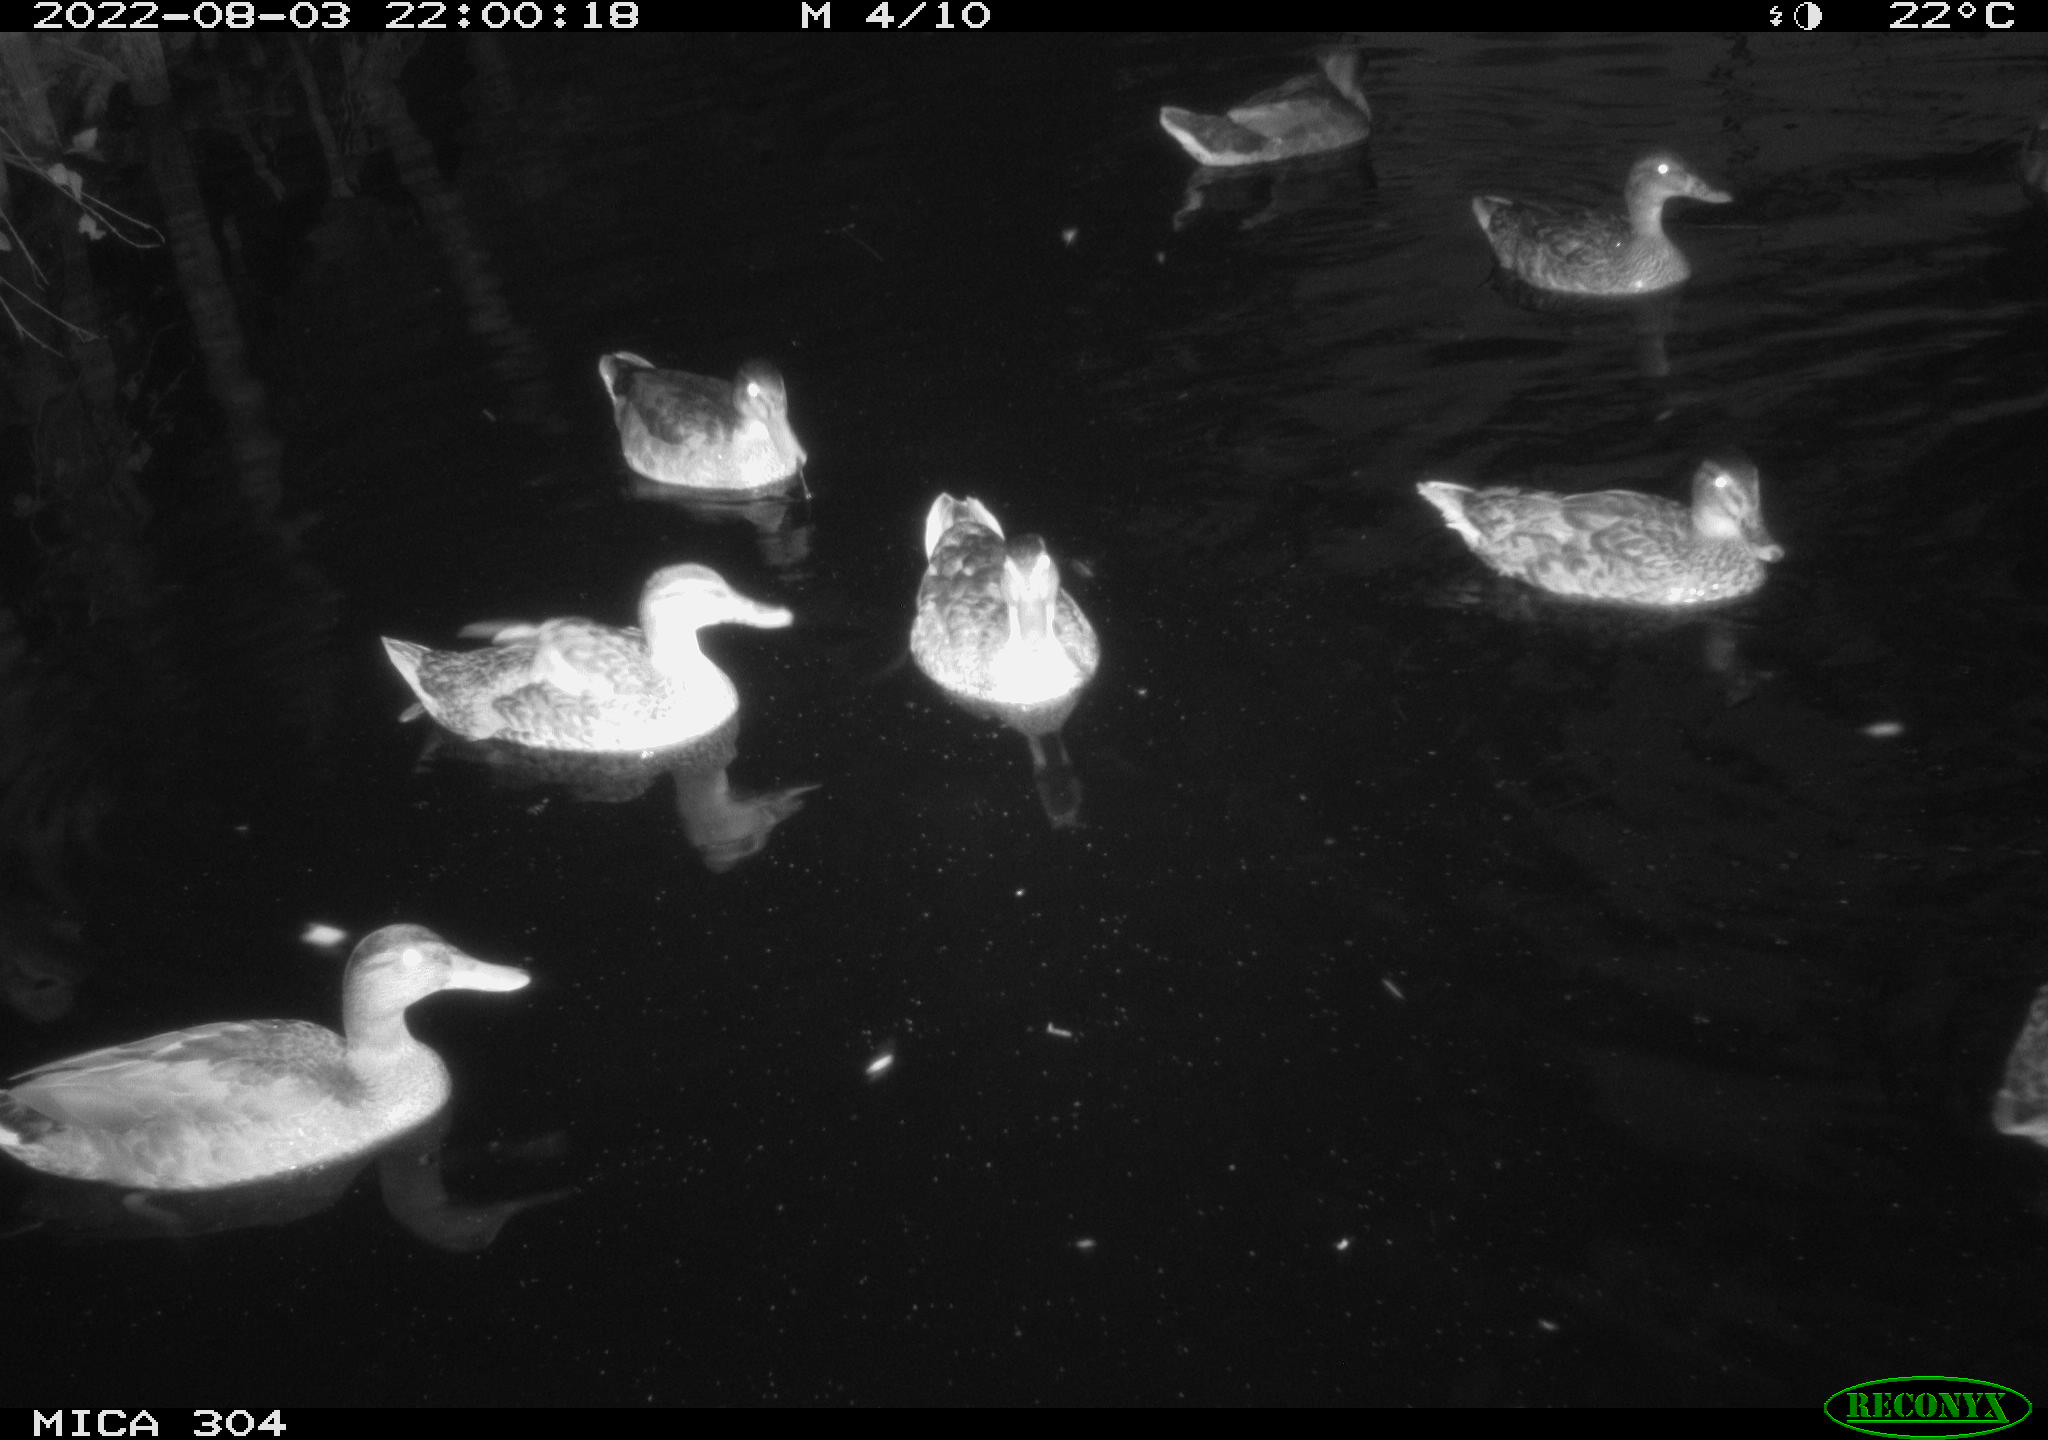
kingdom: Animalia
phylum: Chordata
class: Aves
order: Anseriformes
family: Anatidae
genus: Anas
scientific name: Anas platyrhynchos
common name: Mallard
